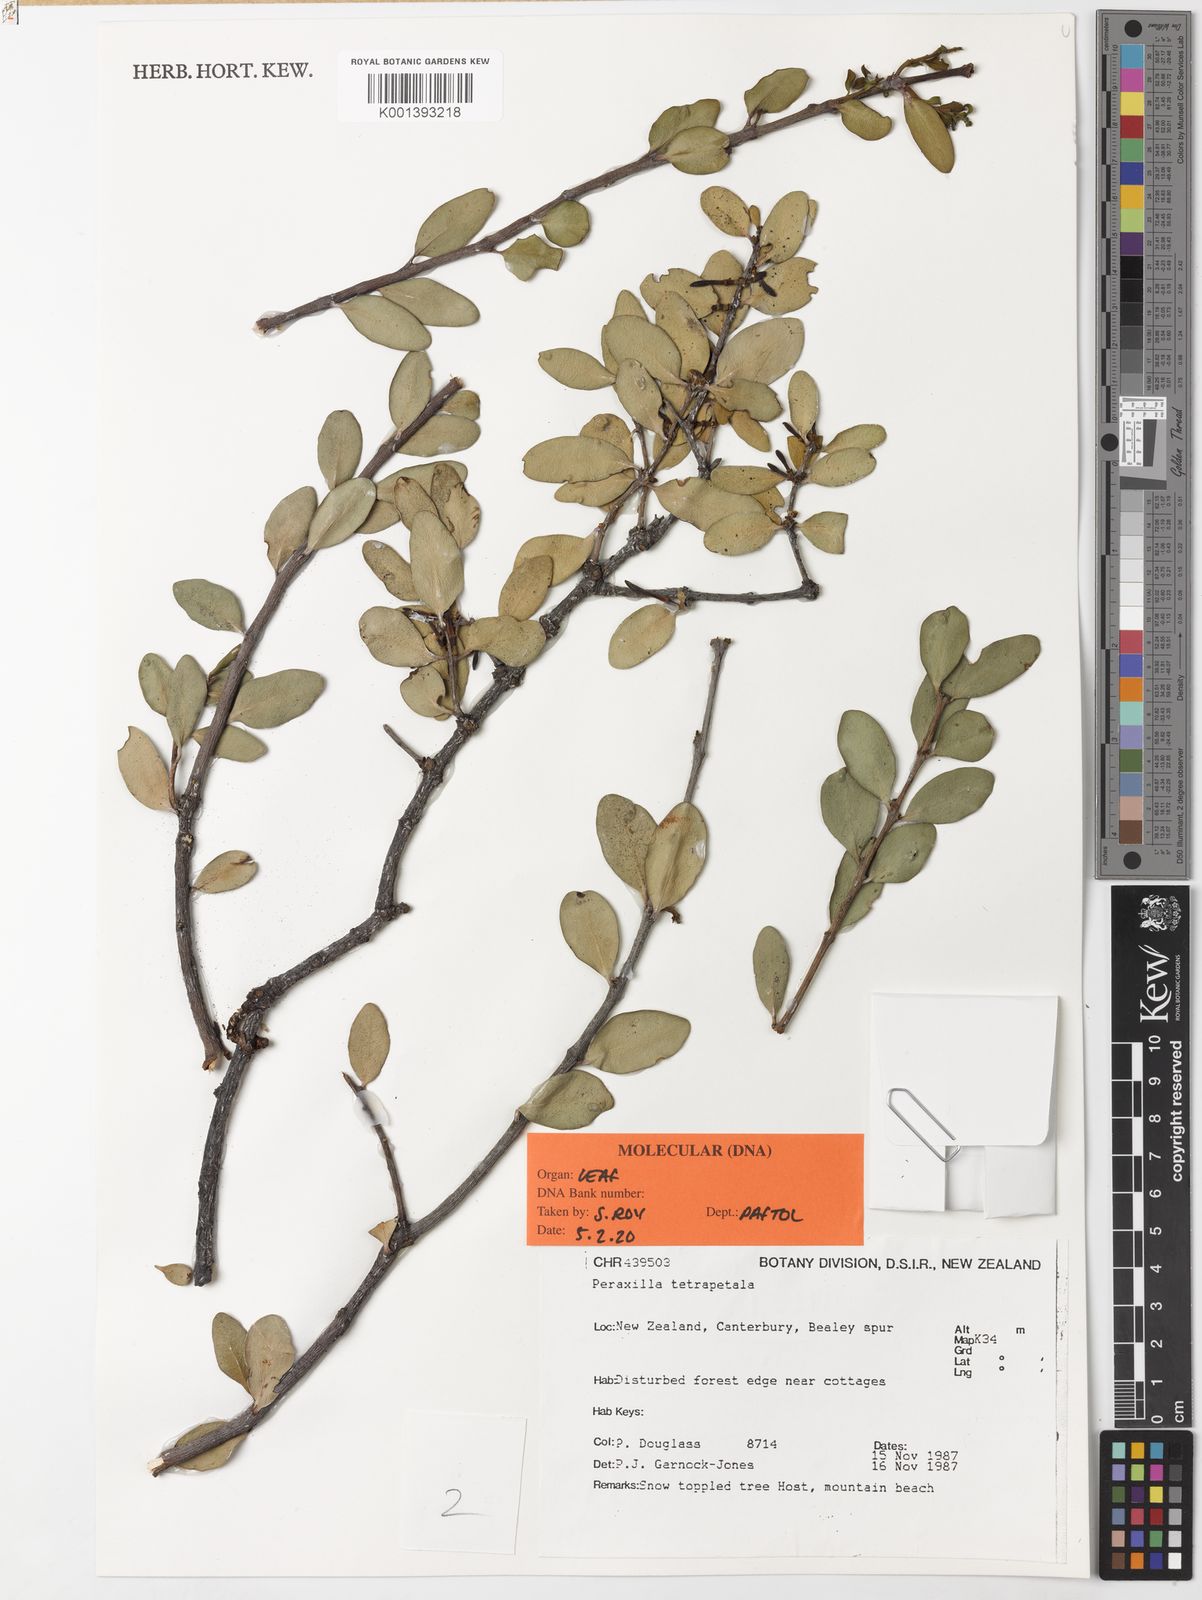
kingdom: Plantae
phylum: Tracheophyta
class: Magnoliopsida
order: Santalales
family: Loranthaceae
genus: Peraxilla
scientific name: Peraxilla tetrapetala
